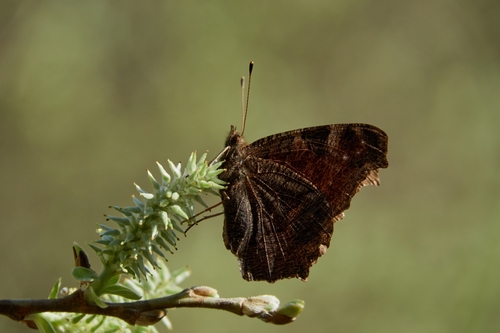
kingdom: Animalia
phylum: Arthropoda
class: Insecta
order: Lepidoptera
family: Nymphalidae
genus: Aglais
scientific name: Aglais io
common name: Peacock
